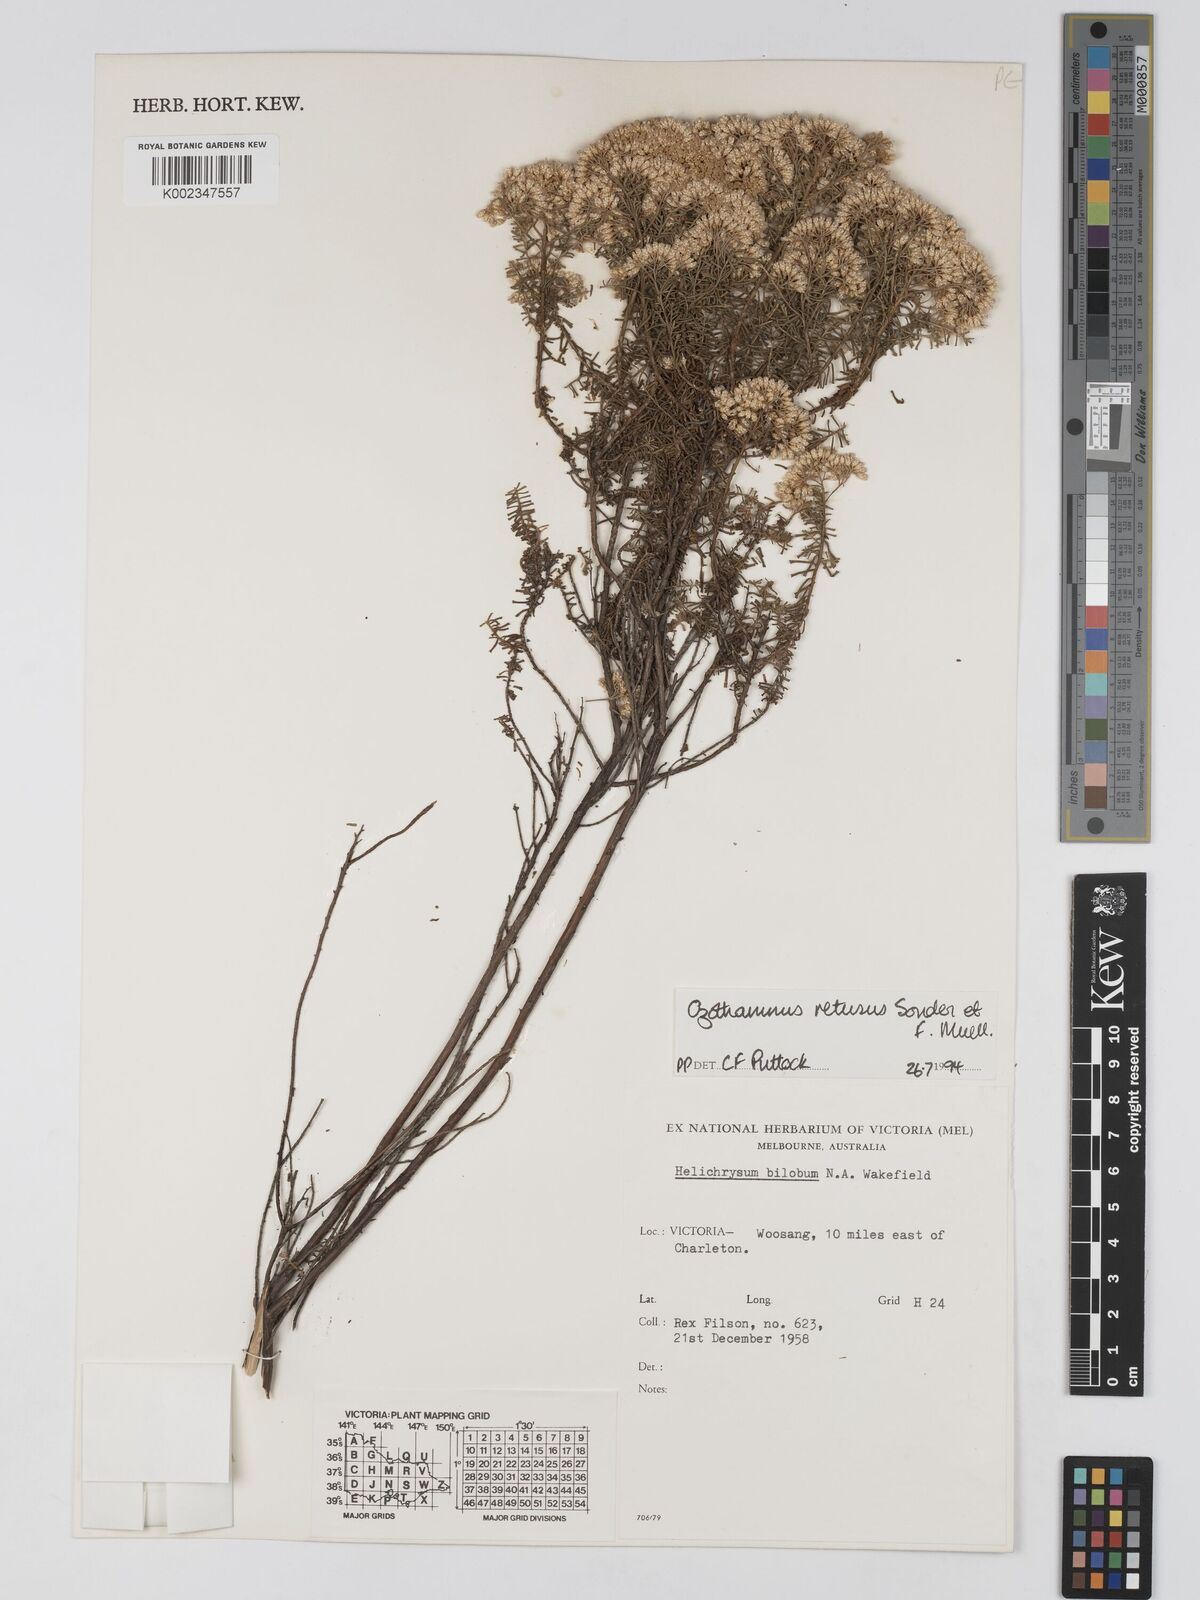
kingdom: Plantae
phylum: Tracheophyta
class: Magnoliopsida
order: Asterales
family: Asteraceae
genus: Ozothamnus
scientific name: Ozothamnus adnatus
